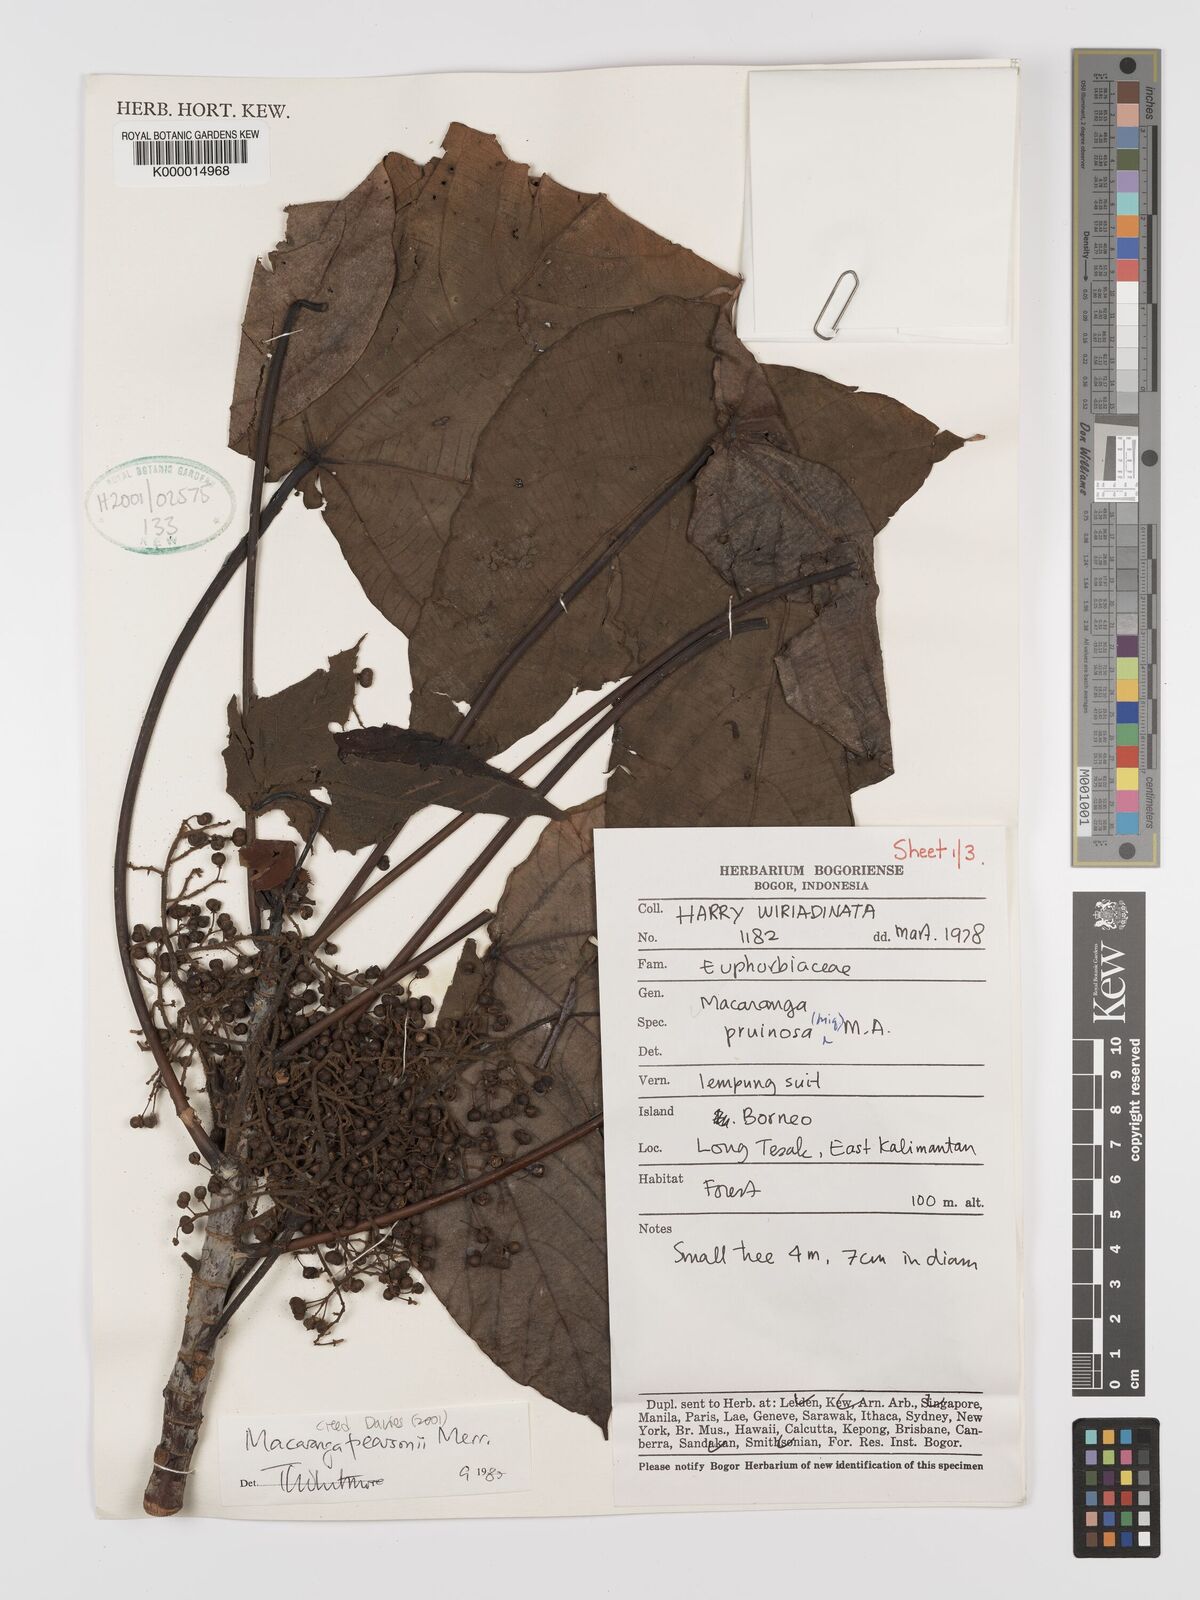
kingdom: Plantae
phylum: Tracheophyta
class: Magnoliopsida
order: Malpighiales
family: Euphorbiaceae
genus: Macaranga
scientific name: Macaranga pearsonii
